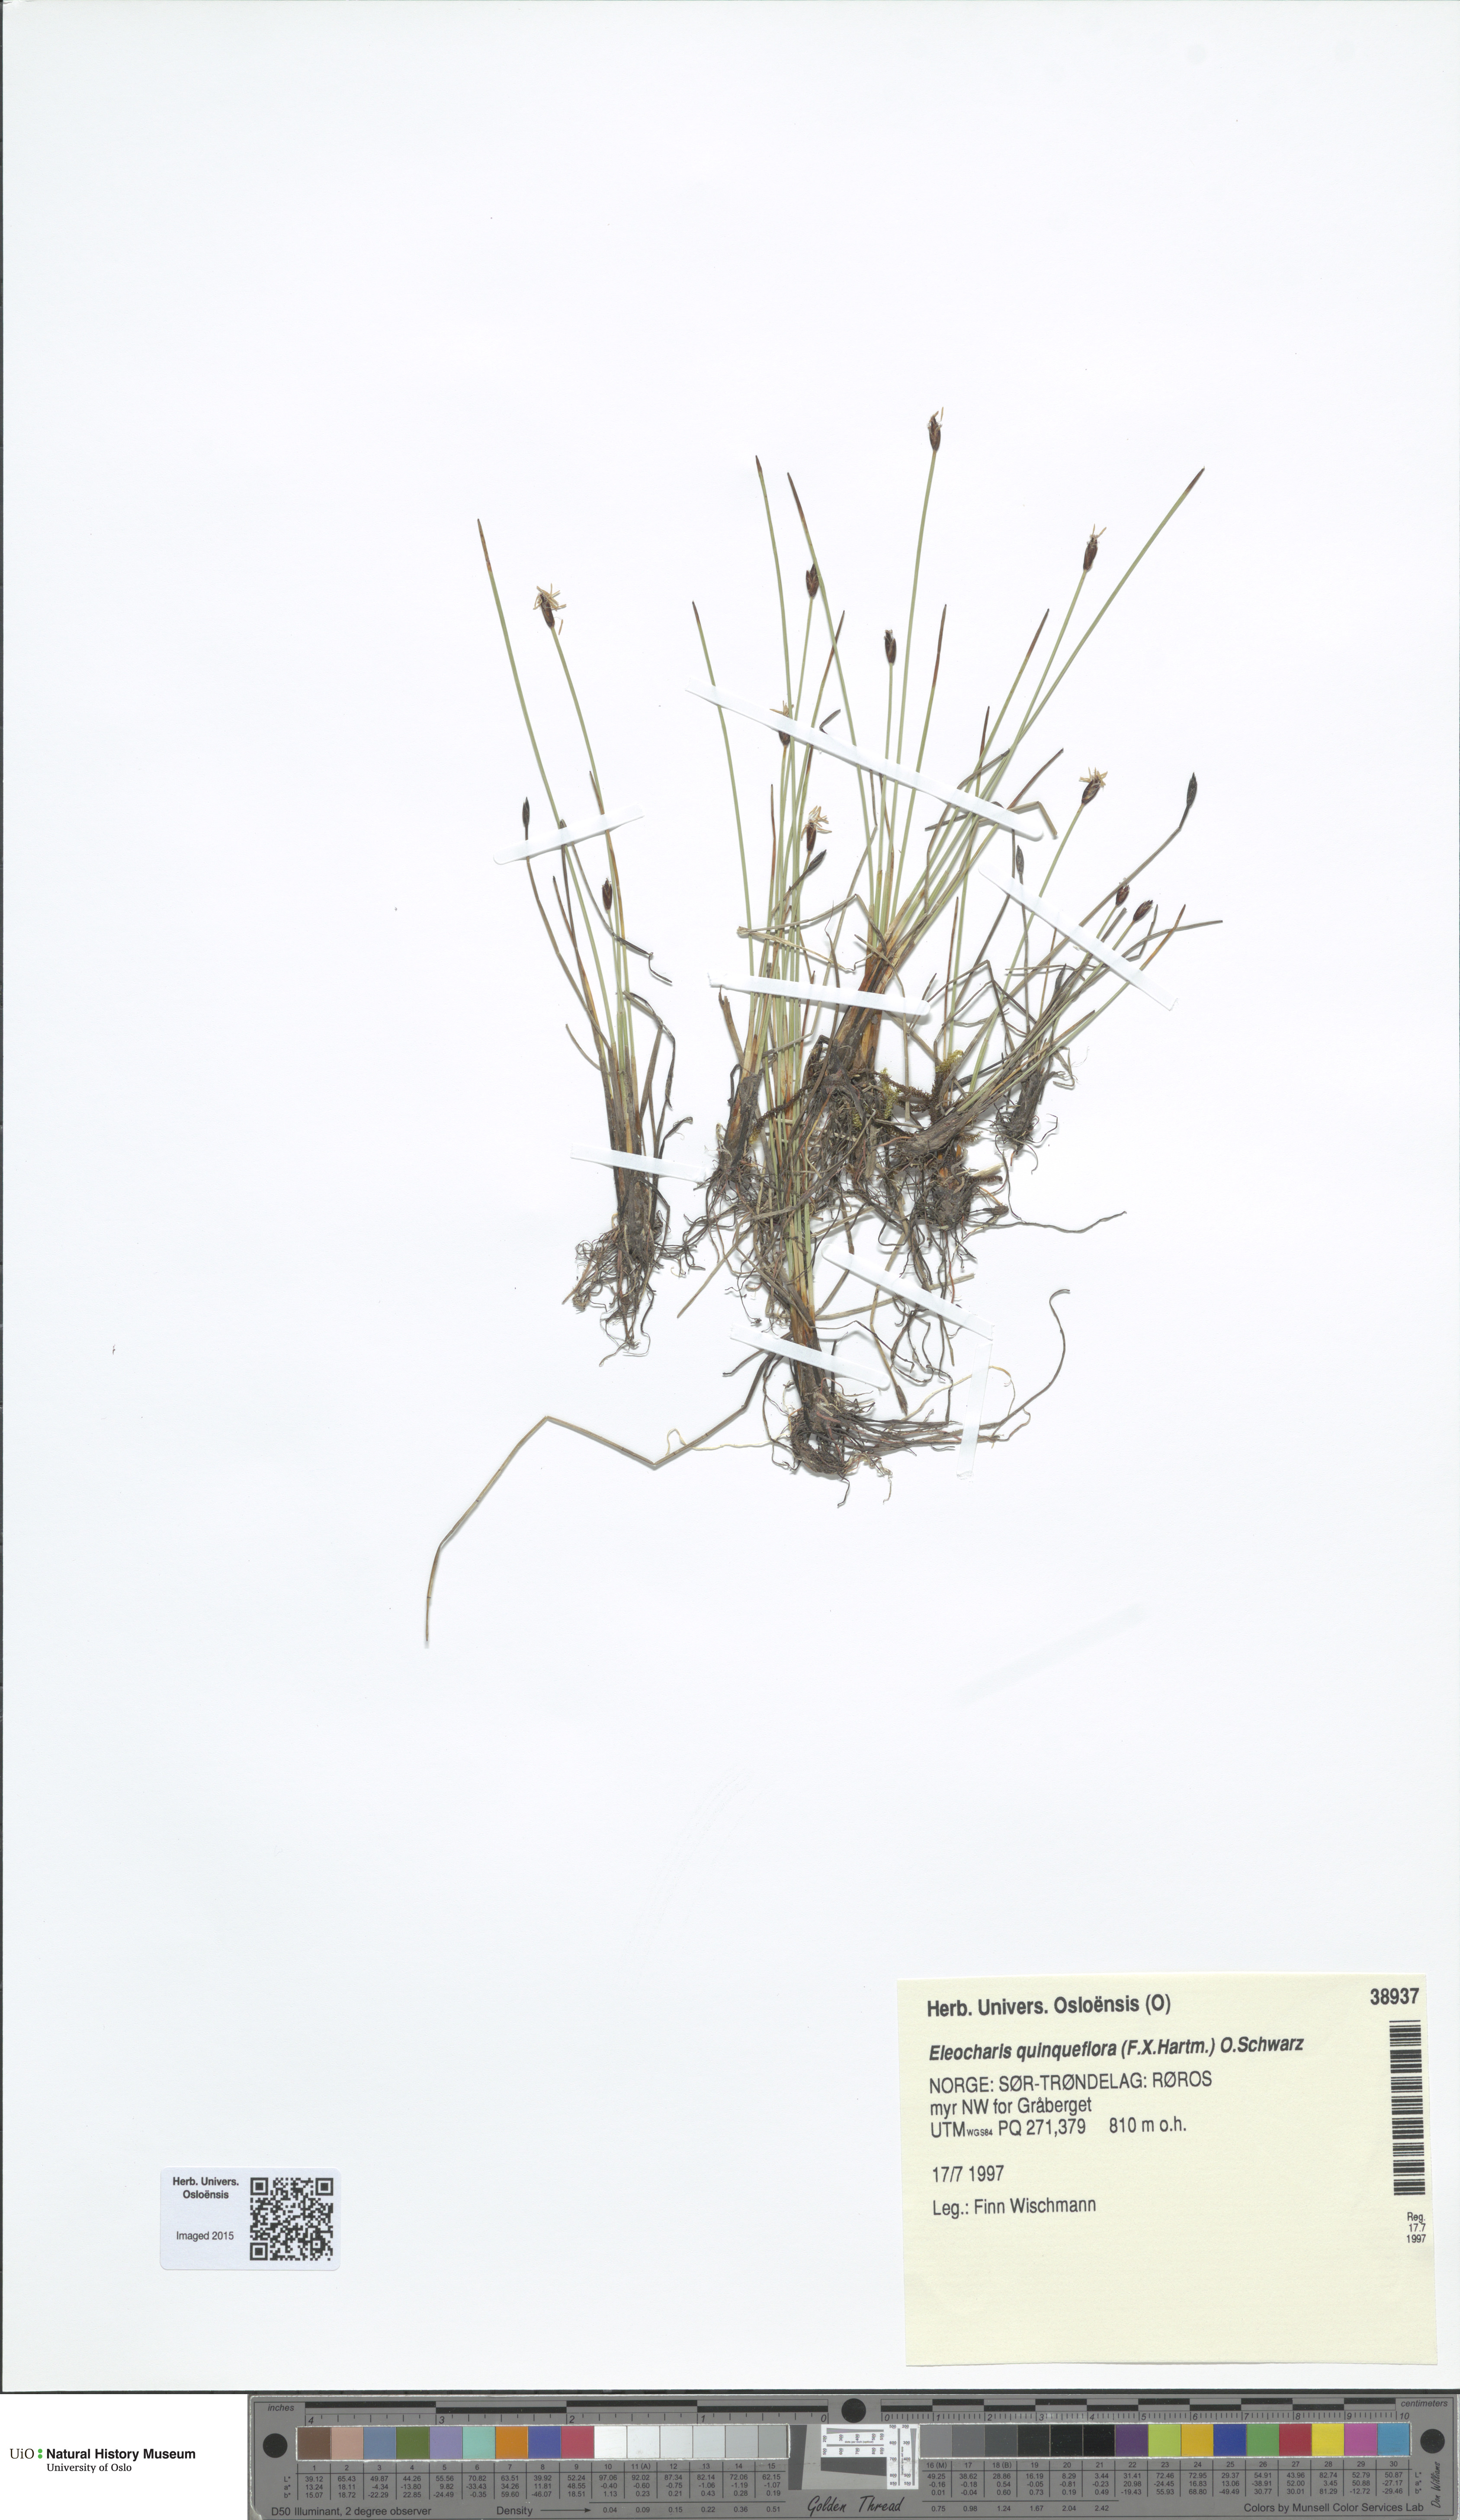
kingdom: Plantae
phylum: Tracheophyta
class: Liliopsida
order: Poales
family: Cyperaceae
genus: Eleocharis
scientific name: Eleocharis quinqueflora
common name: Few-flowered spike-rush
